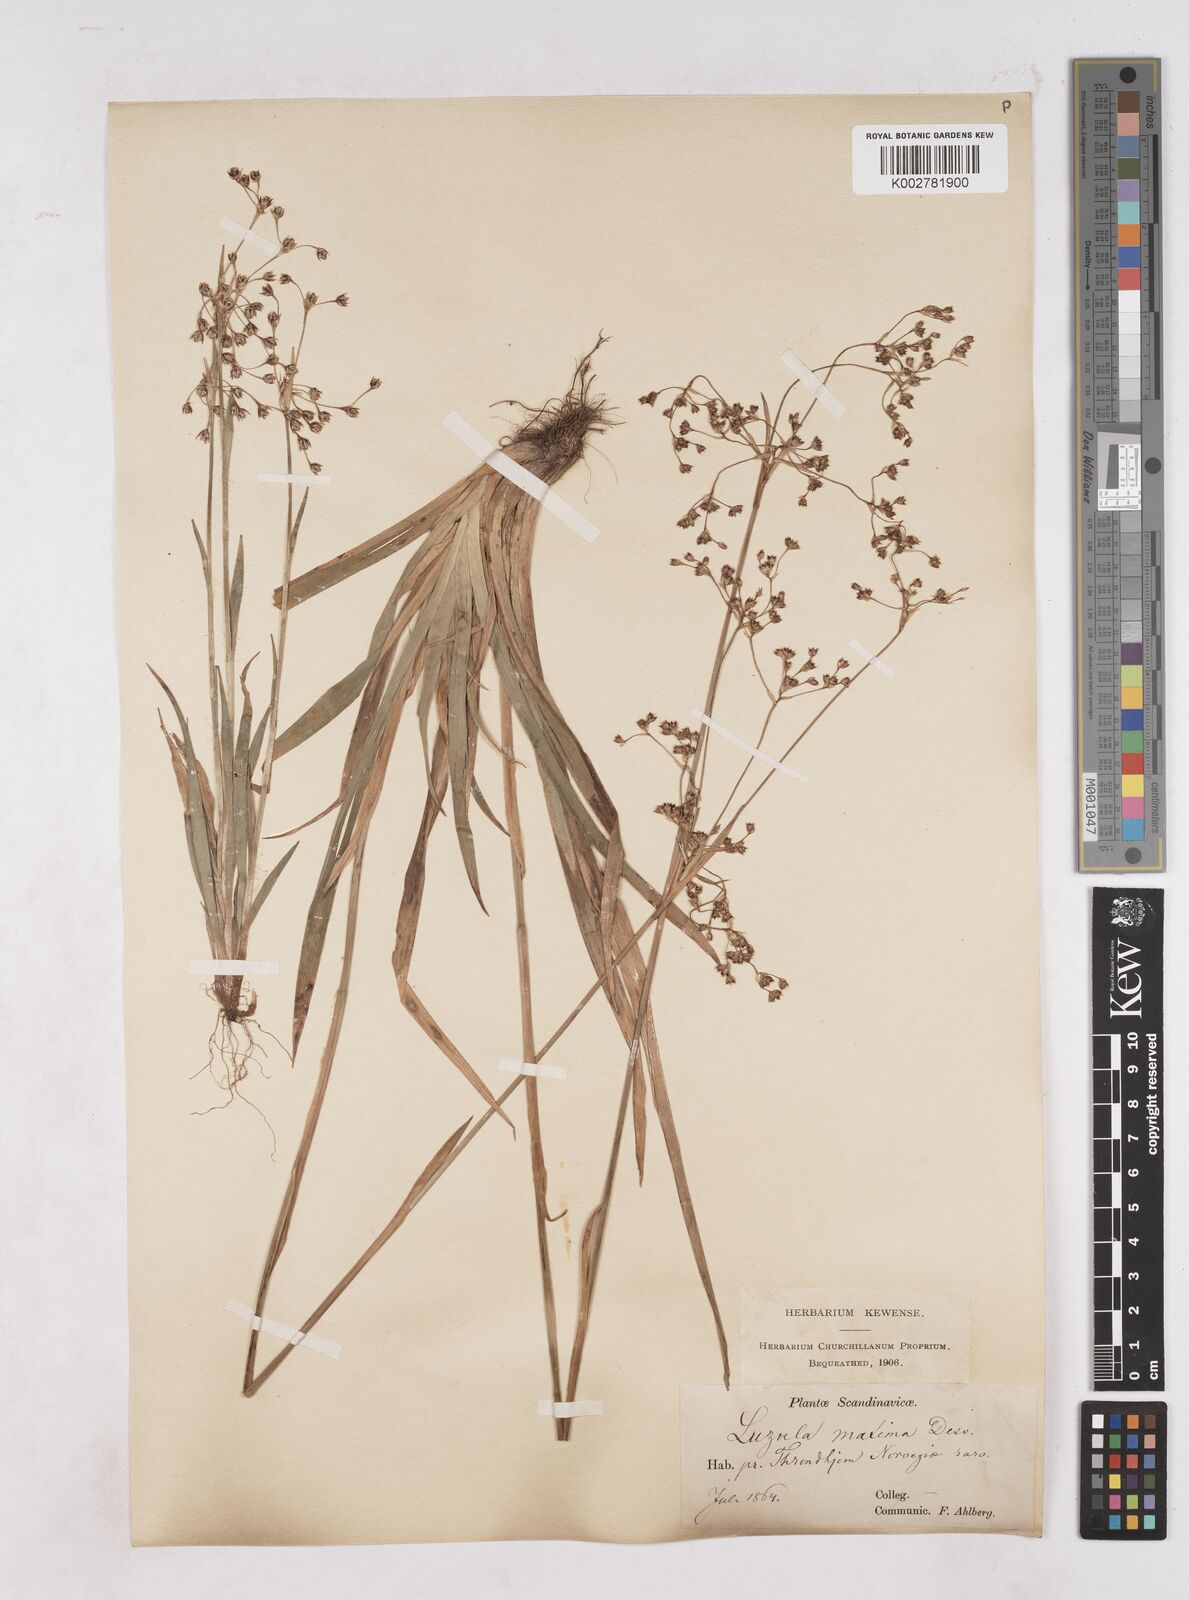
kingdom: Plantae
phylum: Tracheophyta
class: Liliopsida
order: Poales
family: Juncaceae
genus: Luzula
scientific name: Luzula sylvatica
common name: Great wood-rush
